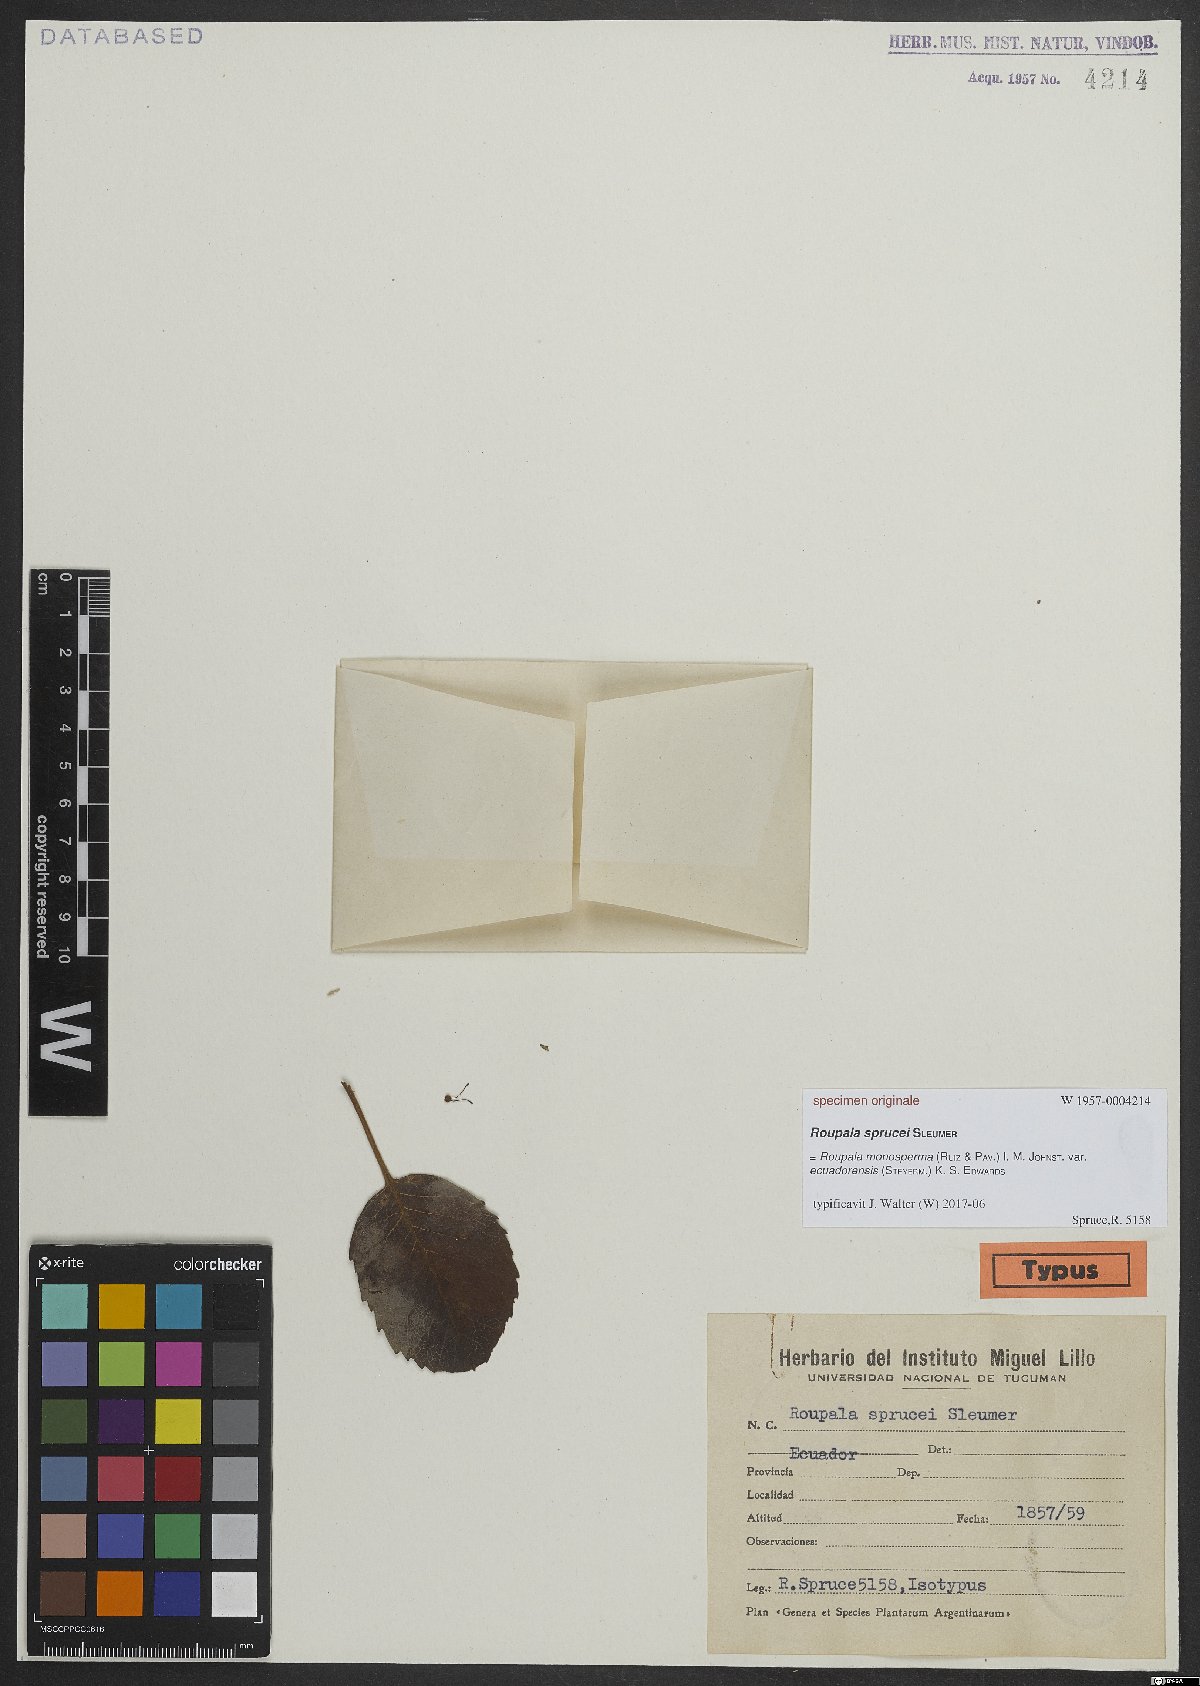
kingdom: Plantae
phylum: Tracheophyta
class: Magnoliopsida
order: Proteales
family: Proteaceae
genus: Roupala
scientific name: Roupala monosperma
